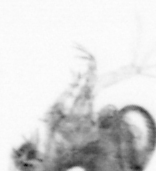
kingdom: Animalia
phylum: Arthropoda
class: Copepoda
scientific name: Copepoda
